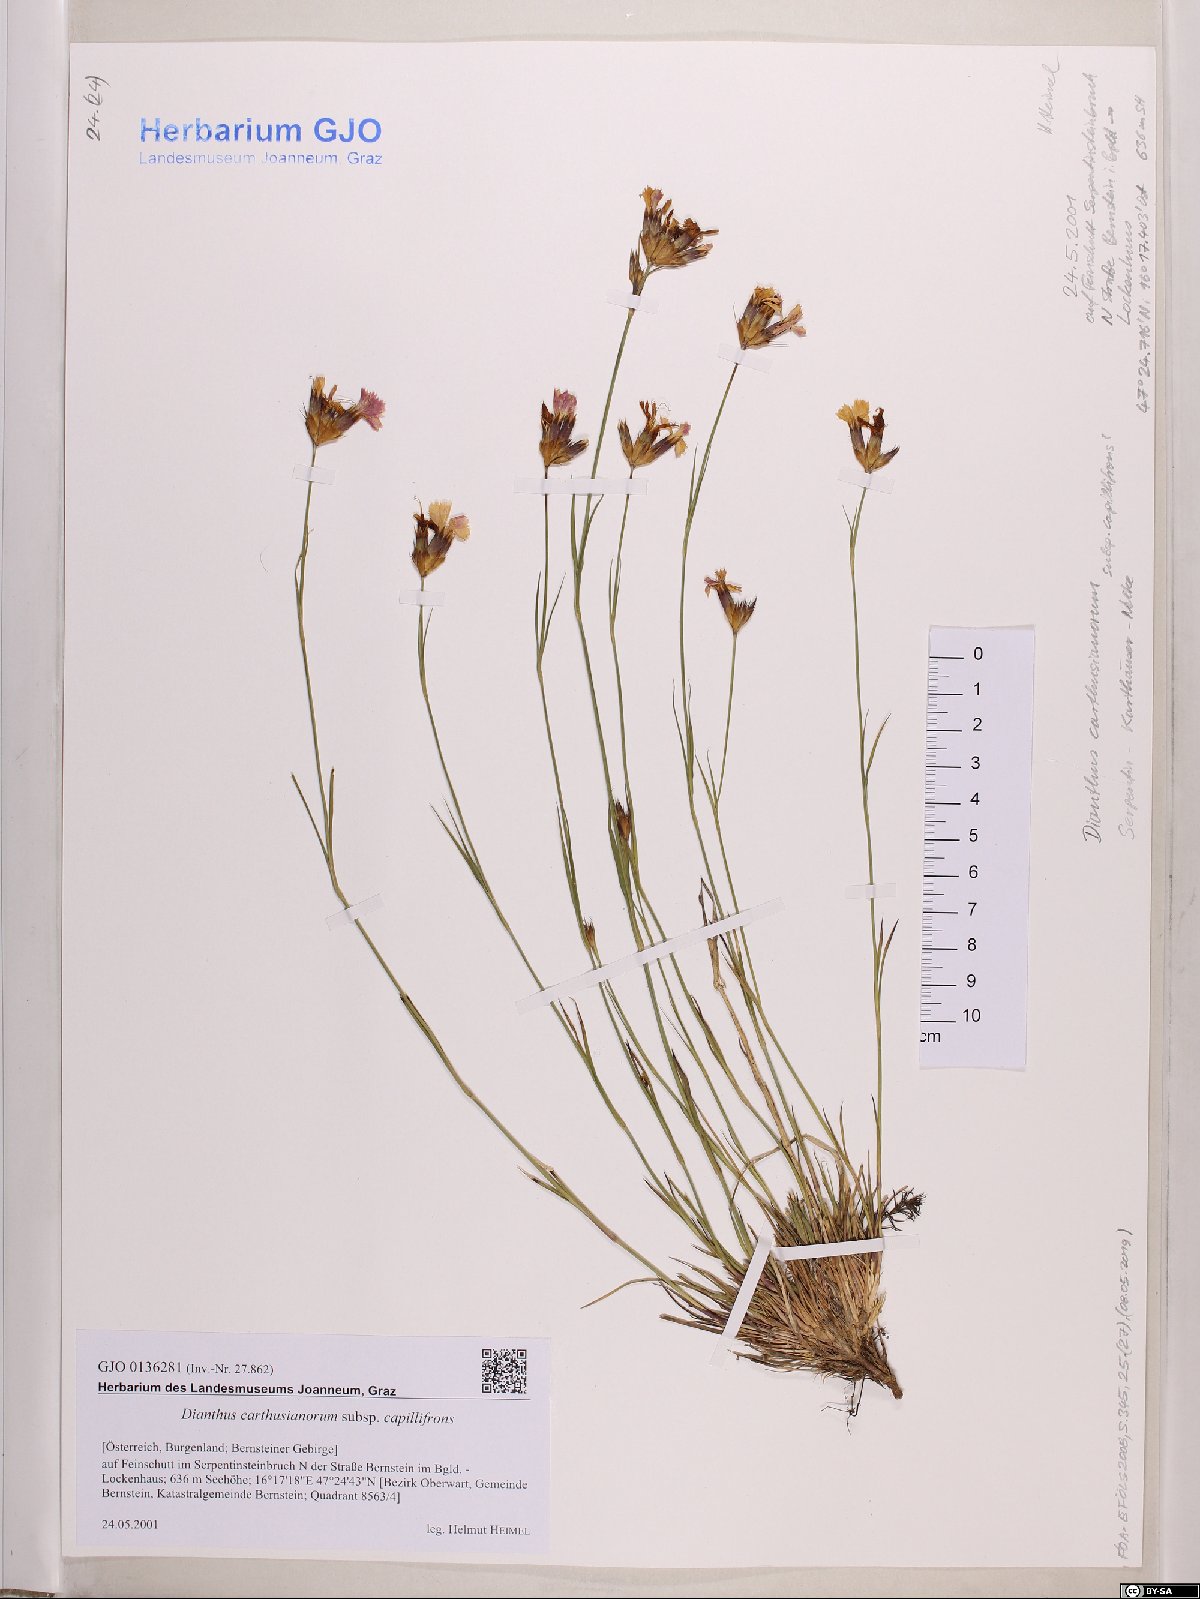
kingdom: Plantae
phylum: Tracheophyta
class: Magnoliopsida
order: Caryophyllales
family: Caryophyllaceae
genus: Dianthus
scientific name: Dianthus carthusianorum
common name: Carthusian pink
